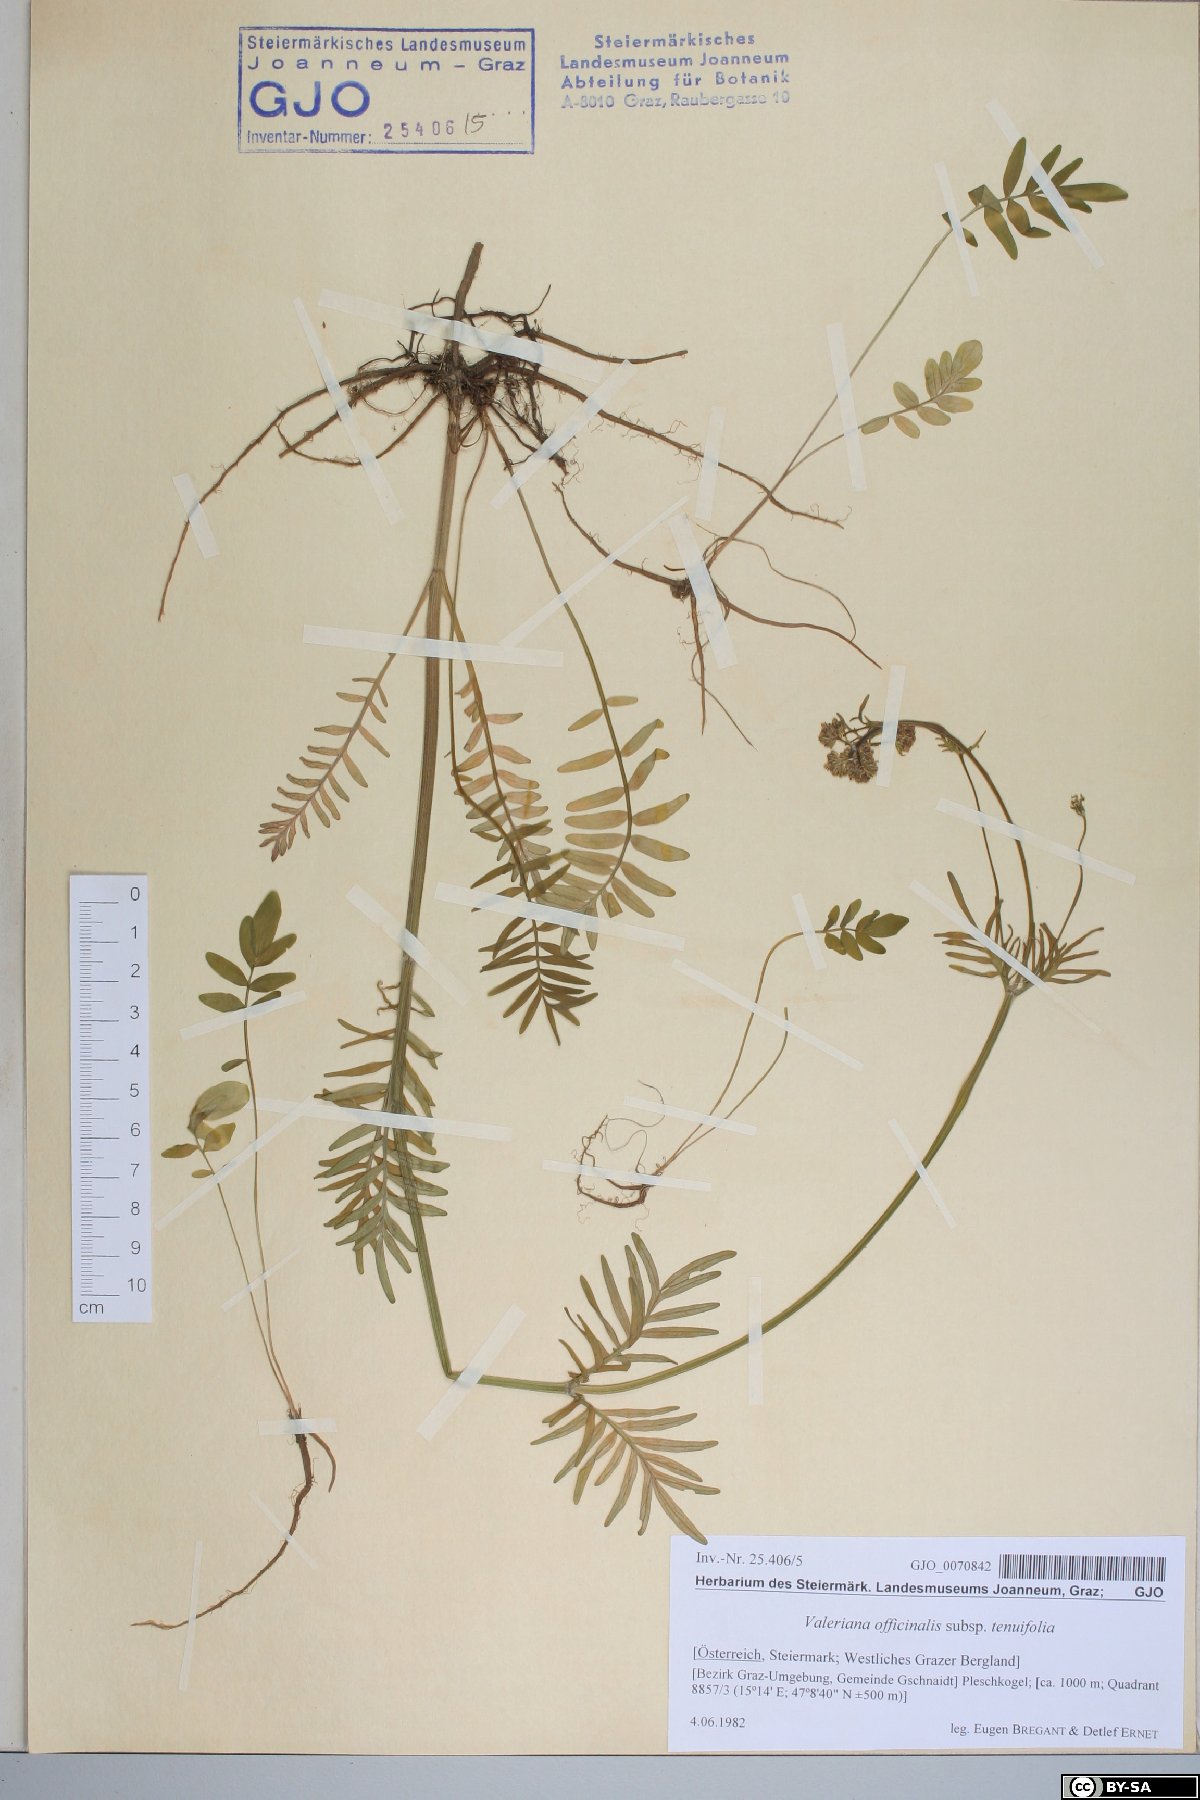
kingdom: Plantae
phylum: Tracheophyta
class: Magnoliopsida
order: Dipsacales
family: Caprifoliaceae
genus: Valeriana
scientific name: Valeriana officinalis
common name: Common valerian
